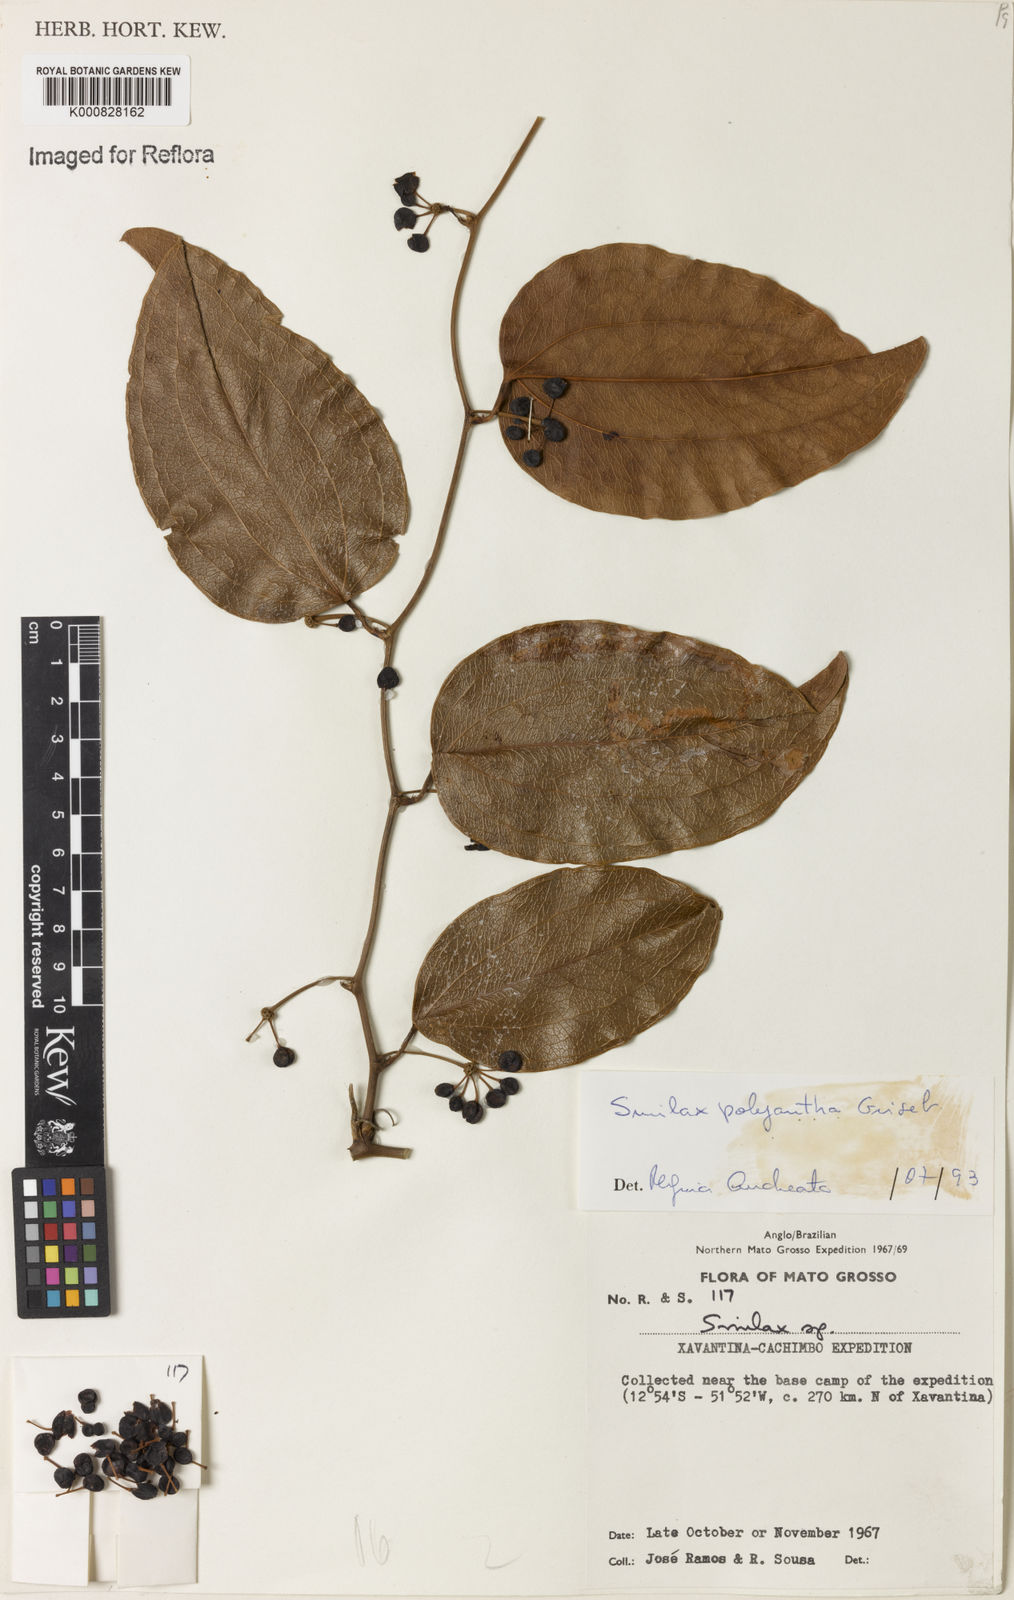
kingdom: Plantae
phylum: Tracheophyta
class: Liliopsida
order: Liliales
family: Smilacaceae
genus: Smilax
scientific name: Smilax polyantha
